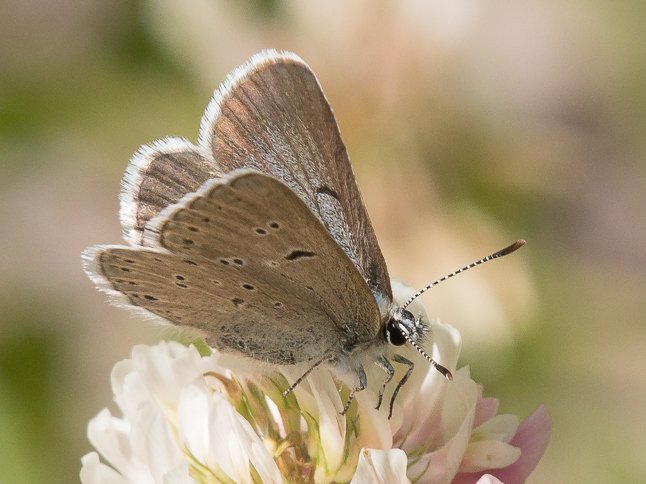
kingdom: Animalia
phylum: Arthropoda
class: Insecta
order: Lepidoptera
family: Lycaenidae
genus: Plebejus
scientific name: Plebejus saepiolus
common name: Greenish Blue
